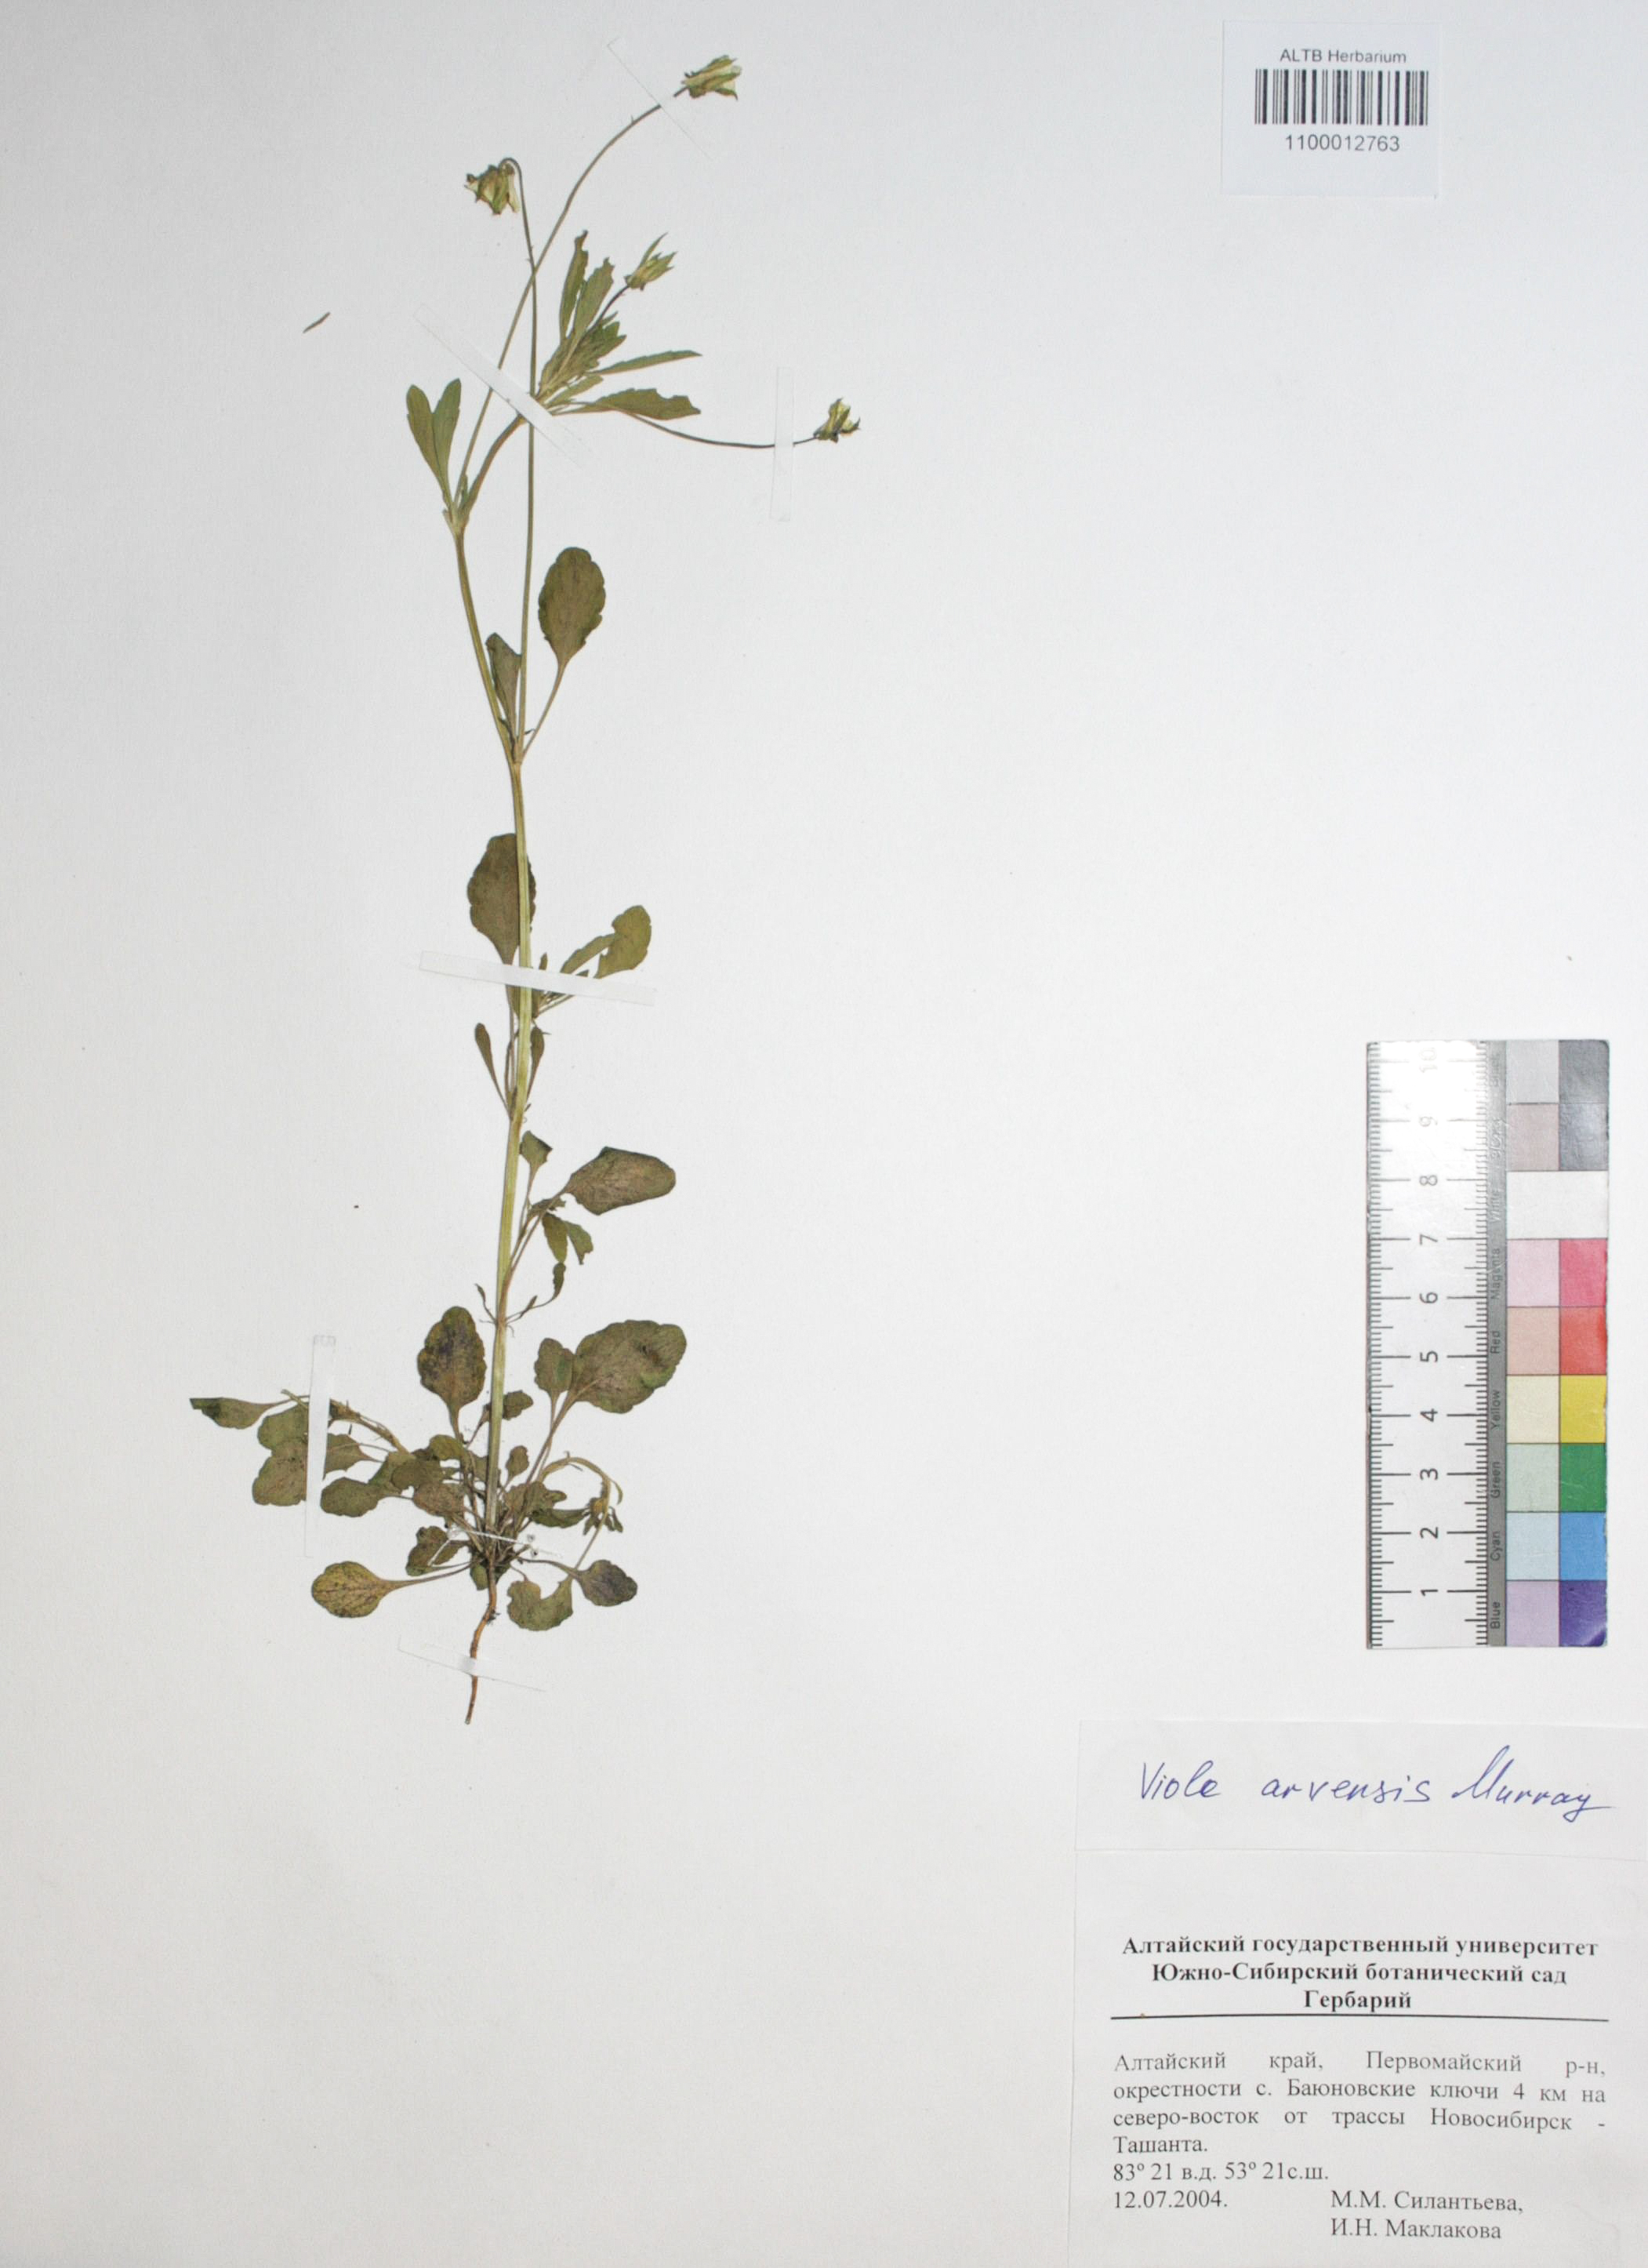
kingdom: Plantae
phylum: Tracheophyta
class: Magnoliopsida
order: Malpighiales
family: Violaceae
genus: Viola
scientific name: Viola arvensis
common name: Field pansy
